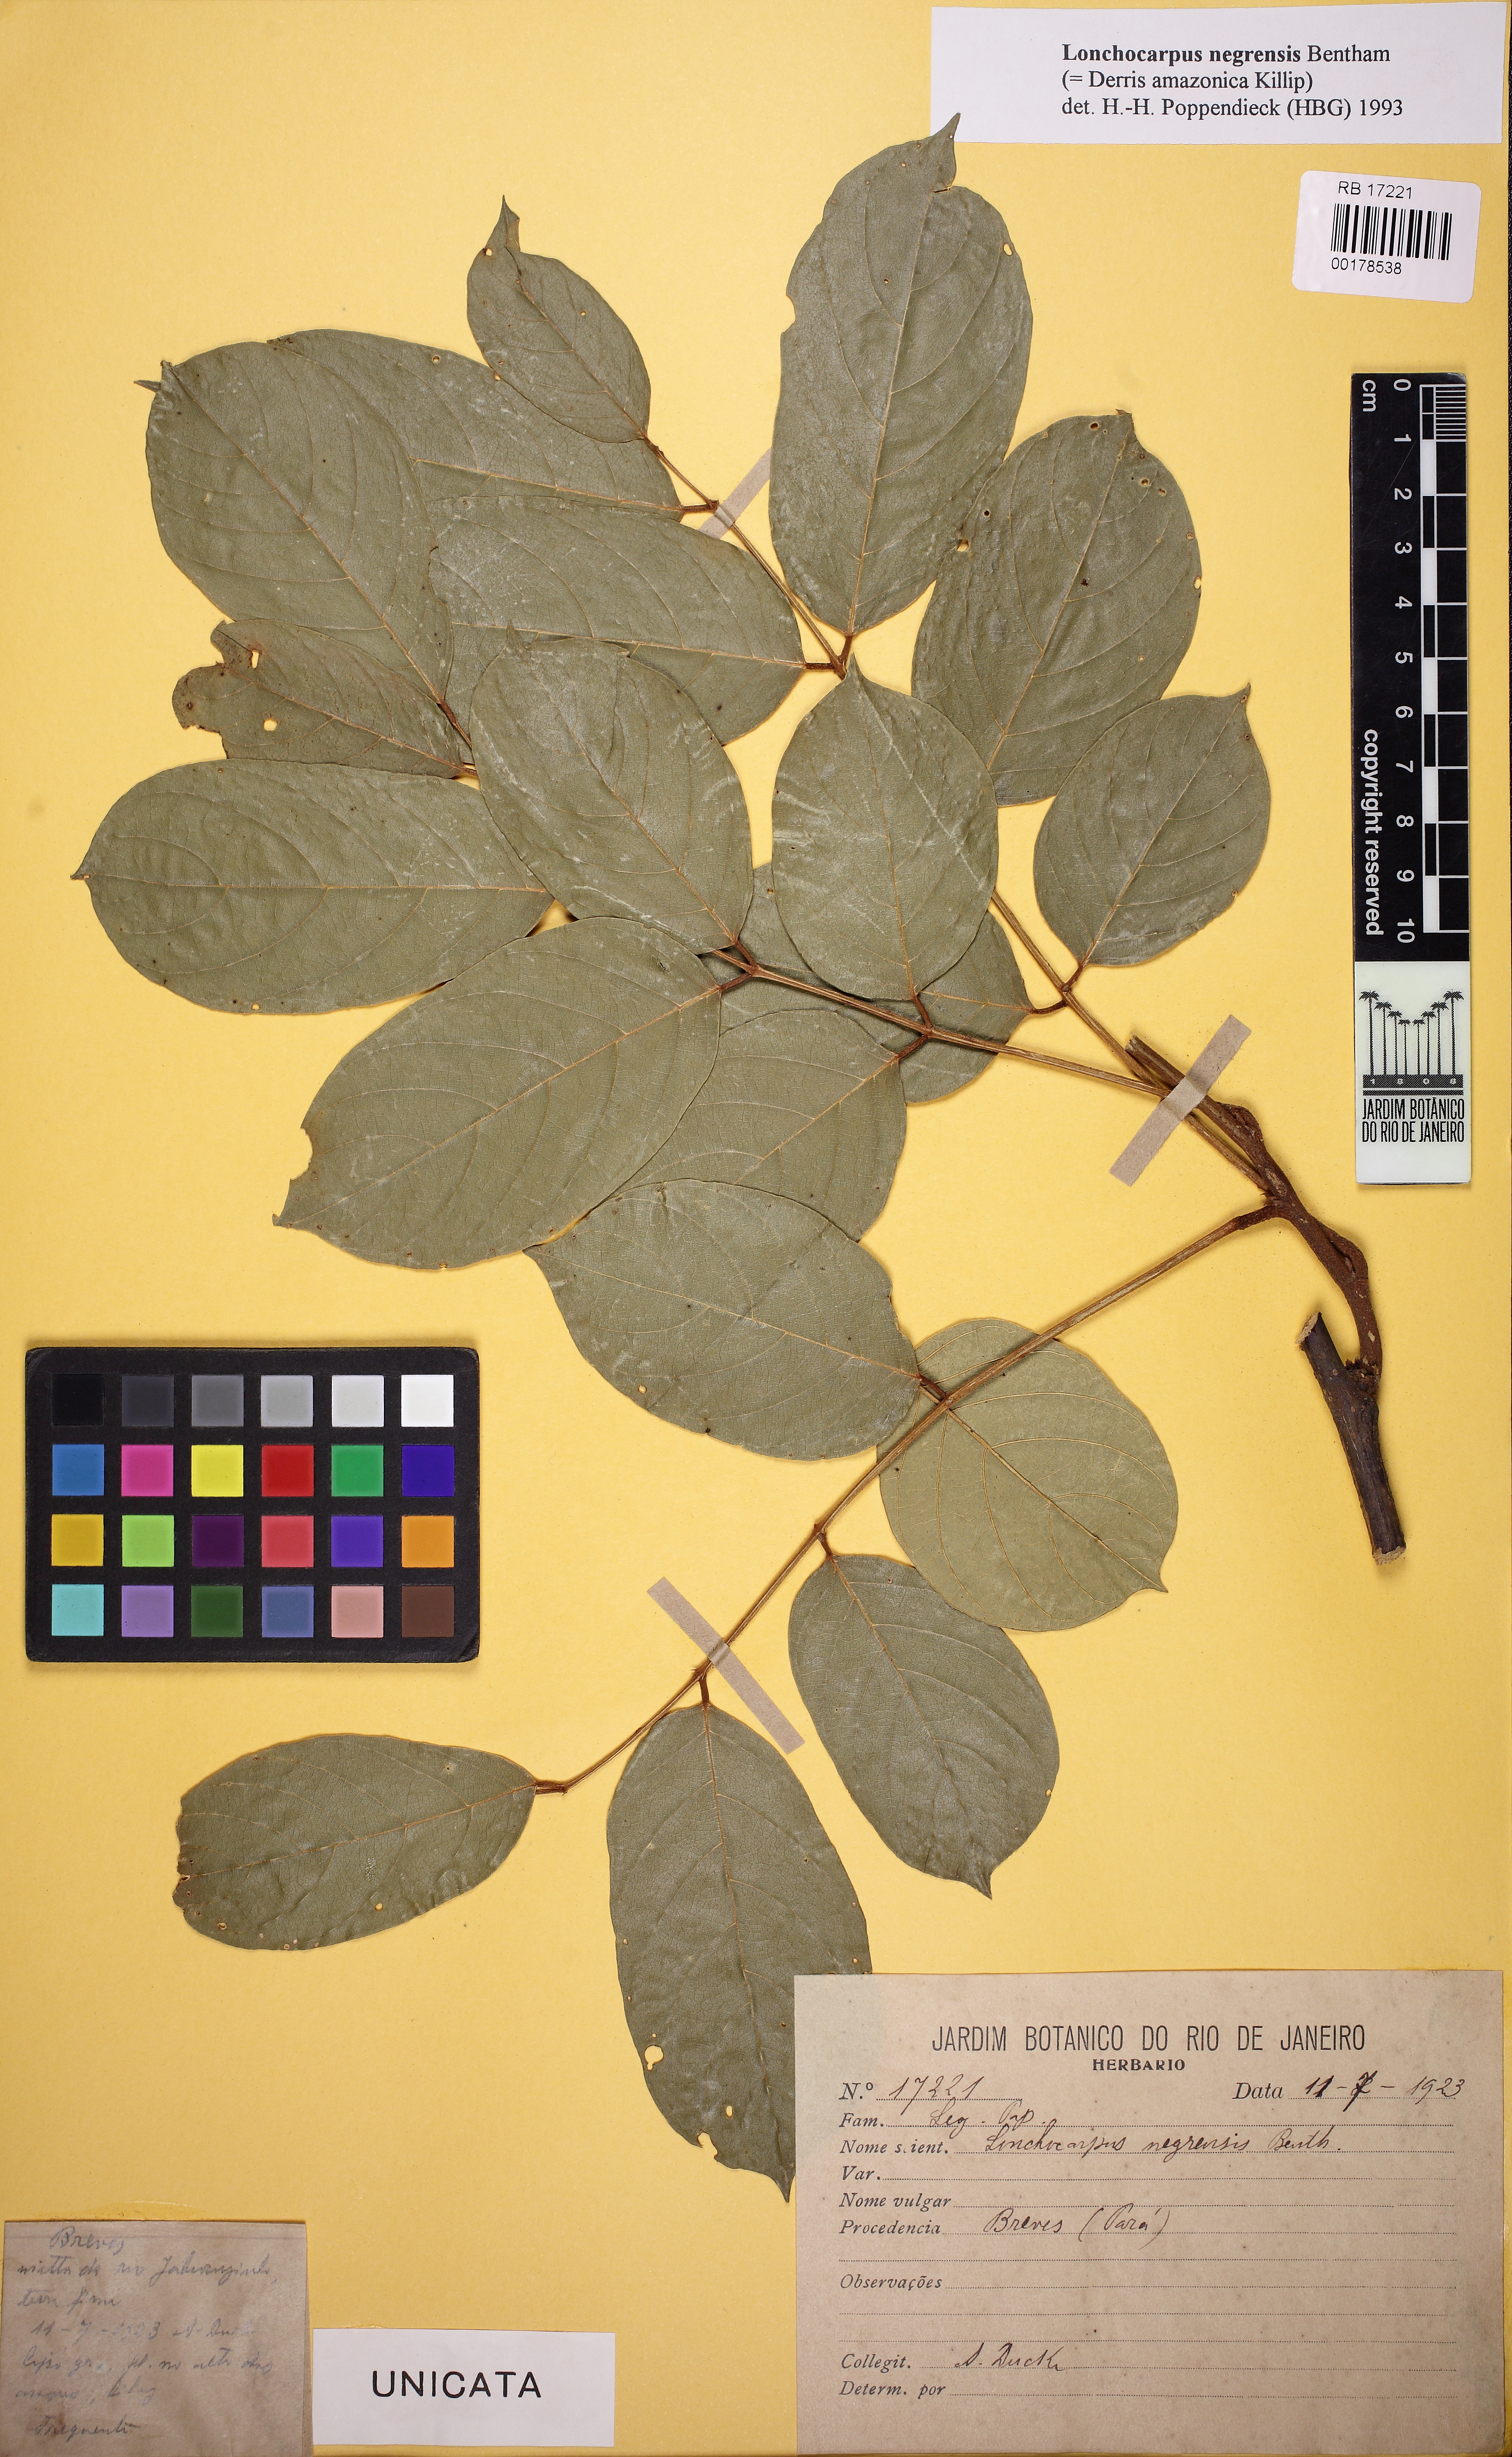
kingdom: Plantae
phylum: Tracheophyta
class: Magnoliopsida
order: Fabales
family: Fabaceae
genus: Deguelia
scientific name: Deguelia amazonica
